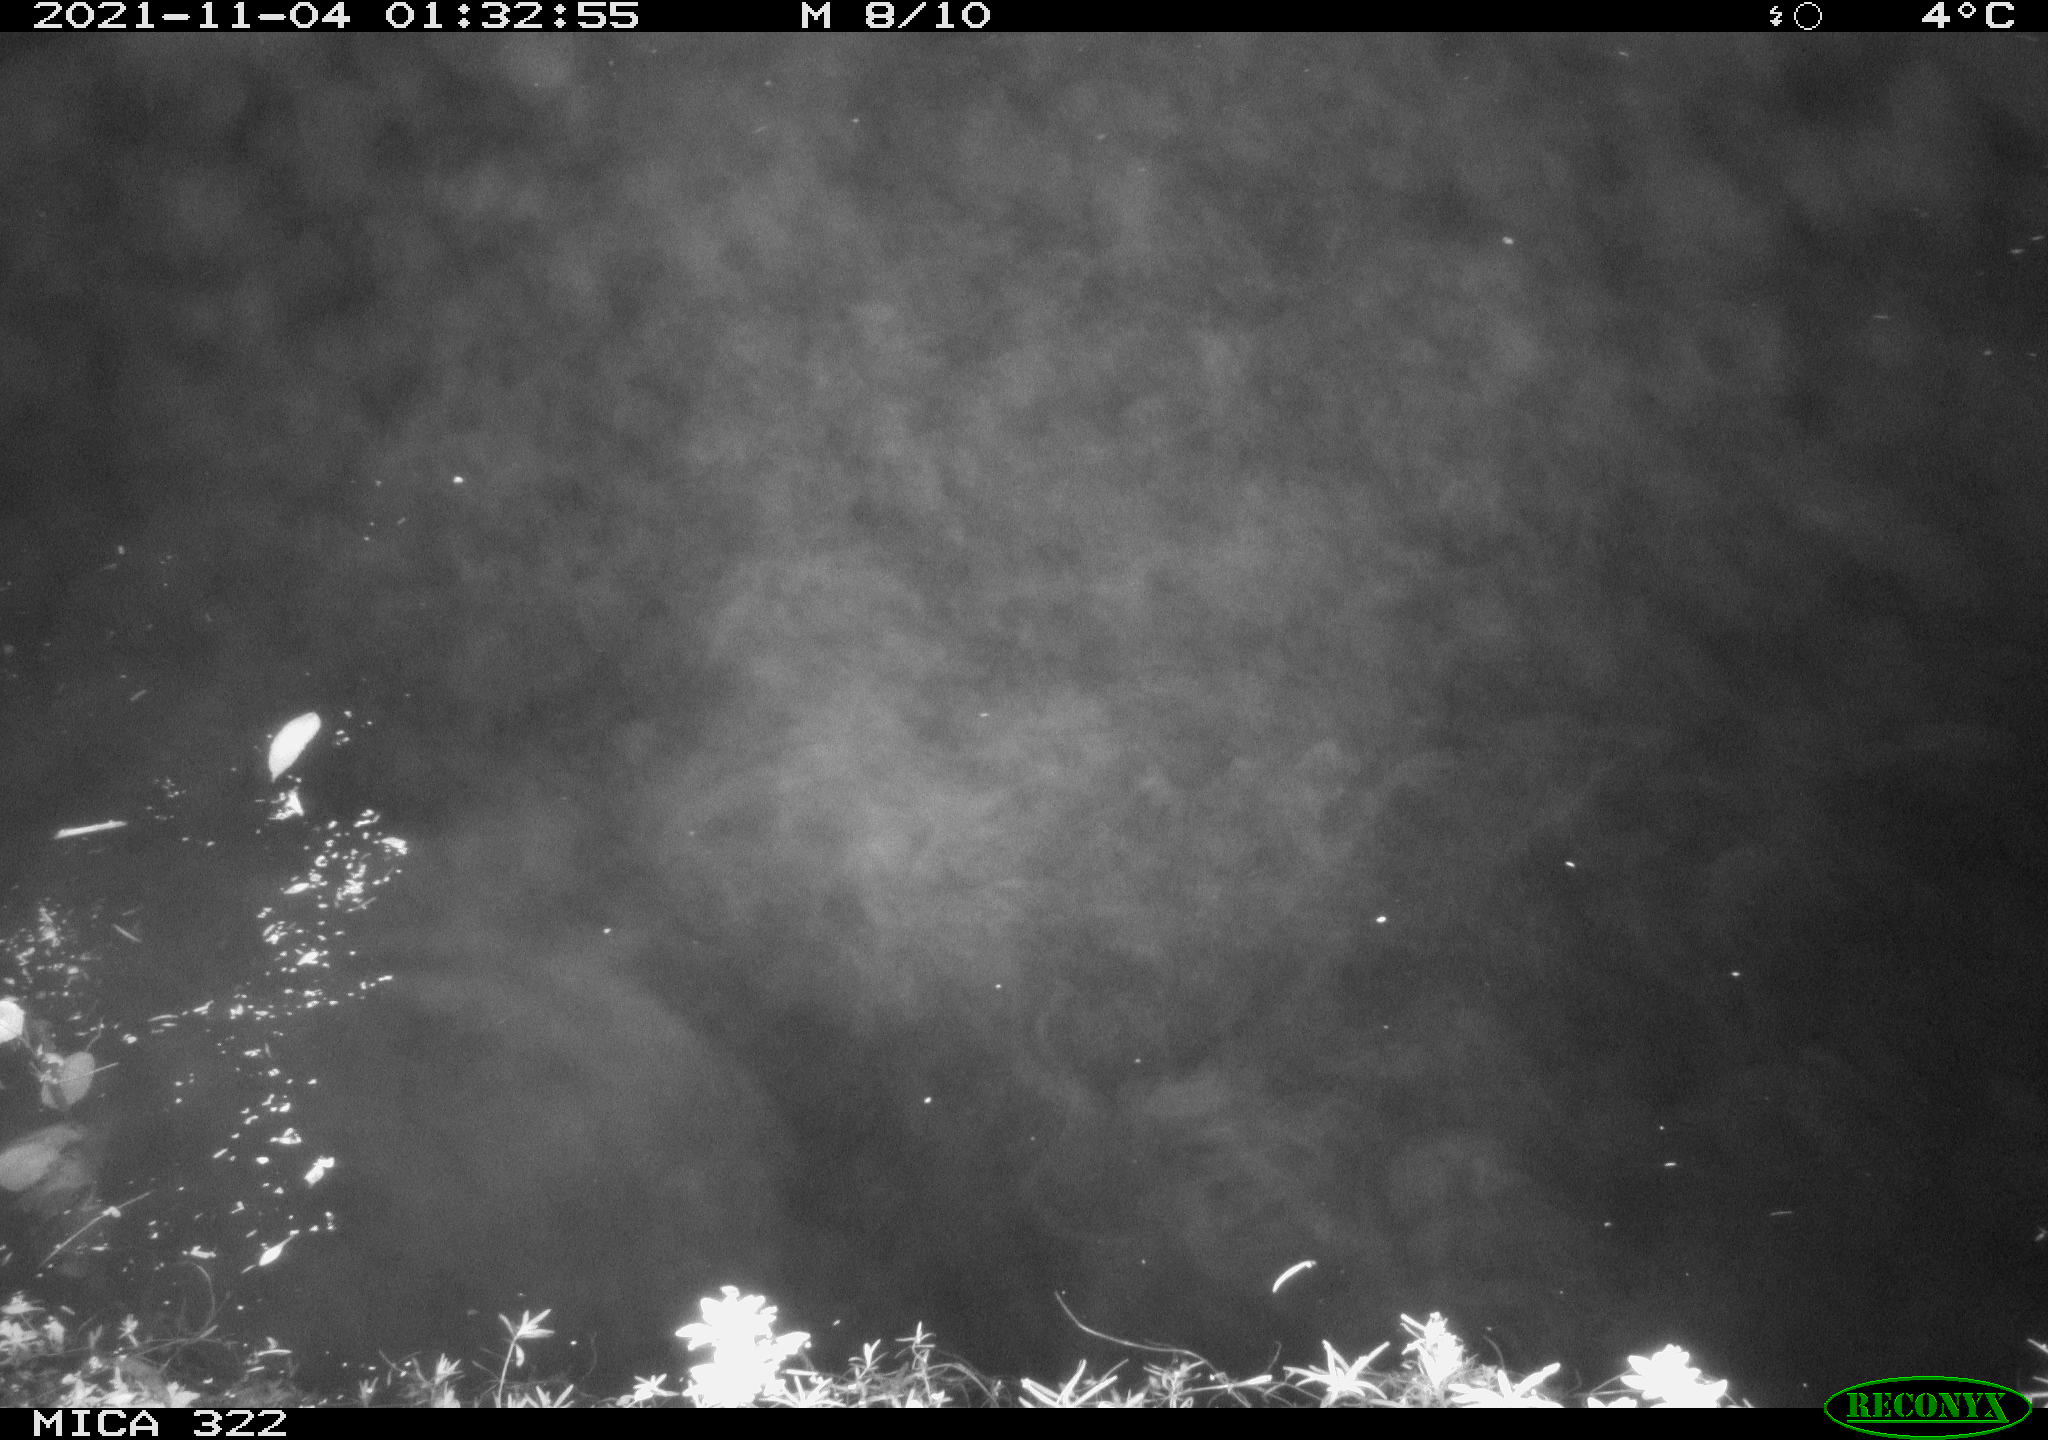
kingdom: Animalia
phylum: Chordata
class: Mammalia
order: Rodentia
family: Muridae
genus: Rattus
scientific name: Rattus norvegicus
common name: Brown rat
